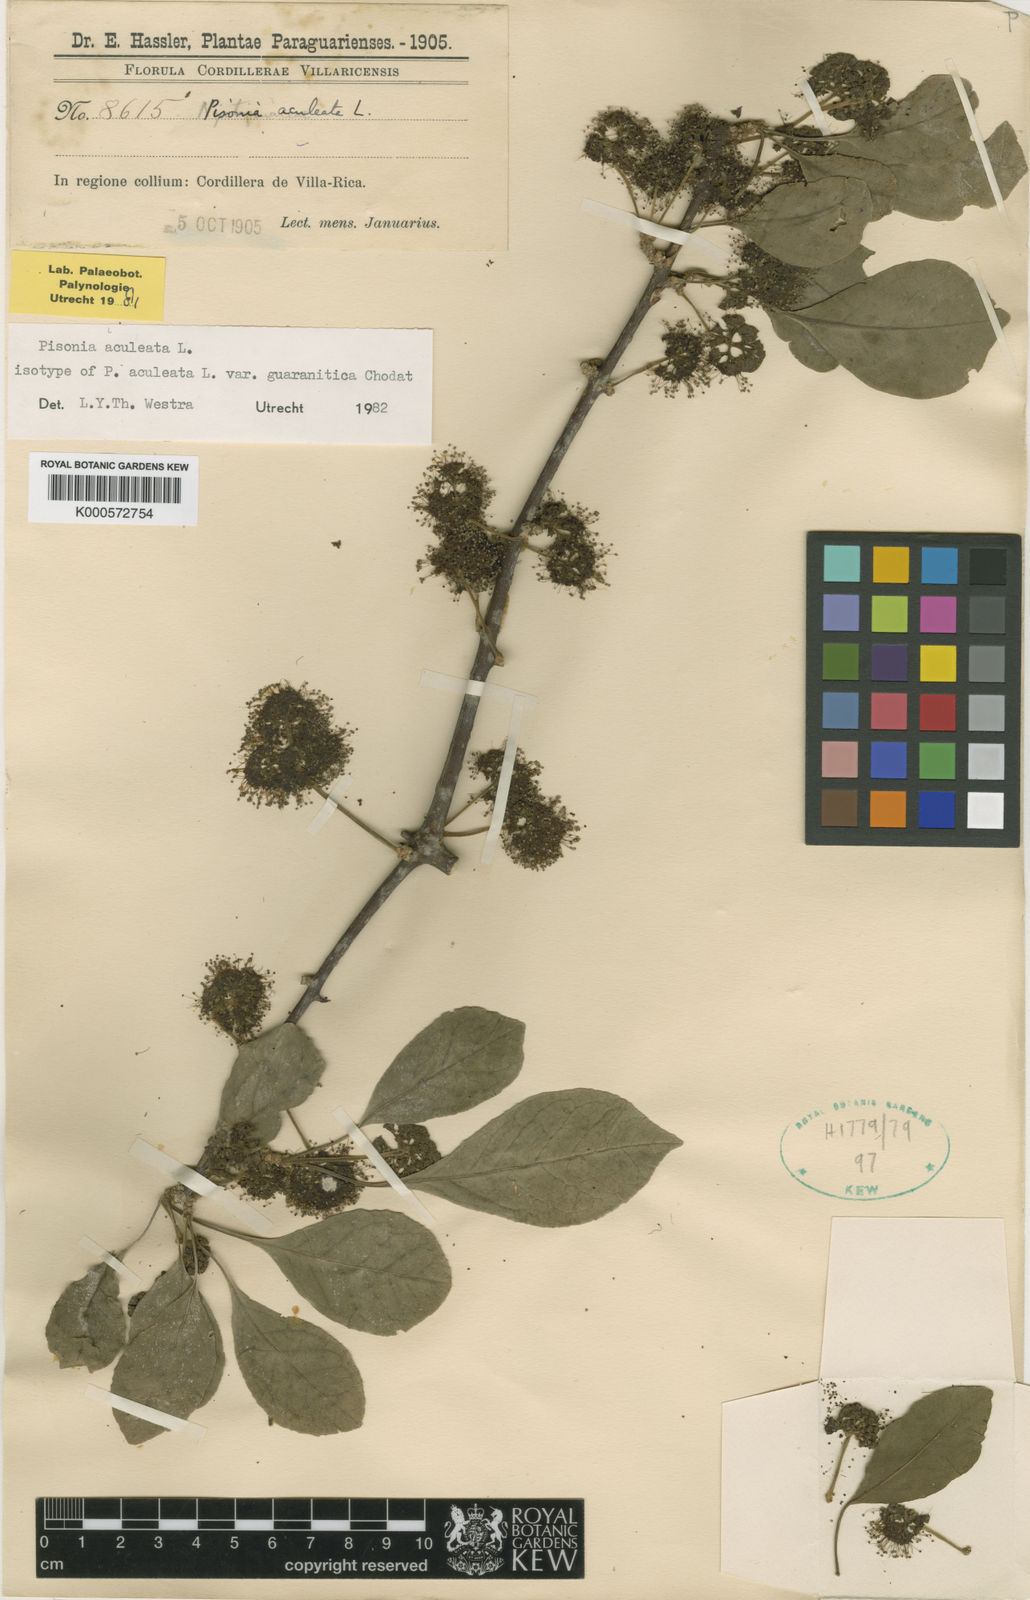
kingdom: Plantae
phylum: Tracheophyta
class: Magnoliopsida
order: Caryophyllales
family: Nyctaginaceae
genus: Pisonia
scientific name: Pisonia aculeata
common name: Cockspur vine
